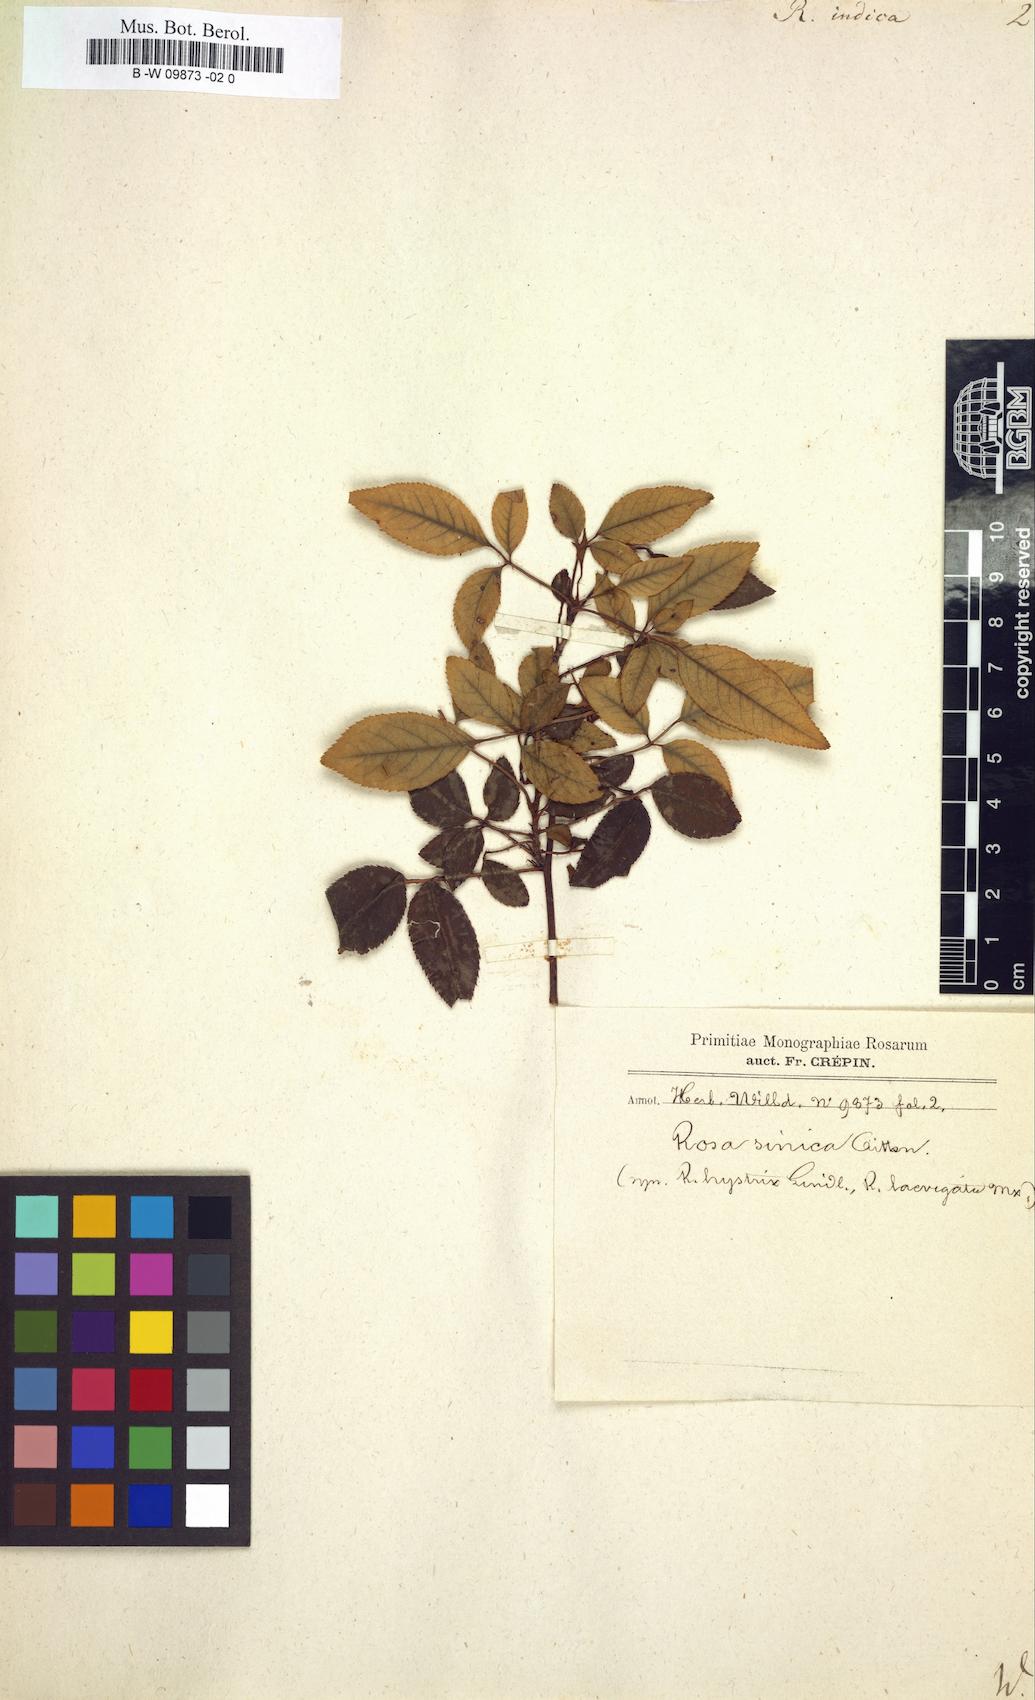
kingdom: Plantae
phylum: Tracheophyta
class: Magnoliopsida
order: Rosales
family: Rosaceae
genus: Rosa
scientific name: Rosa indica
